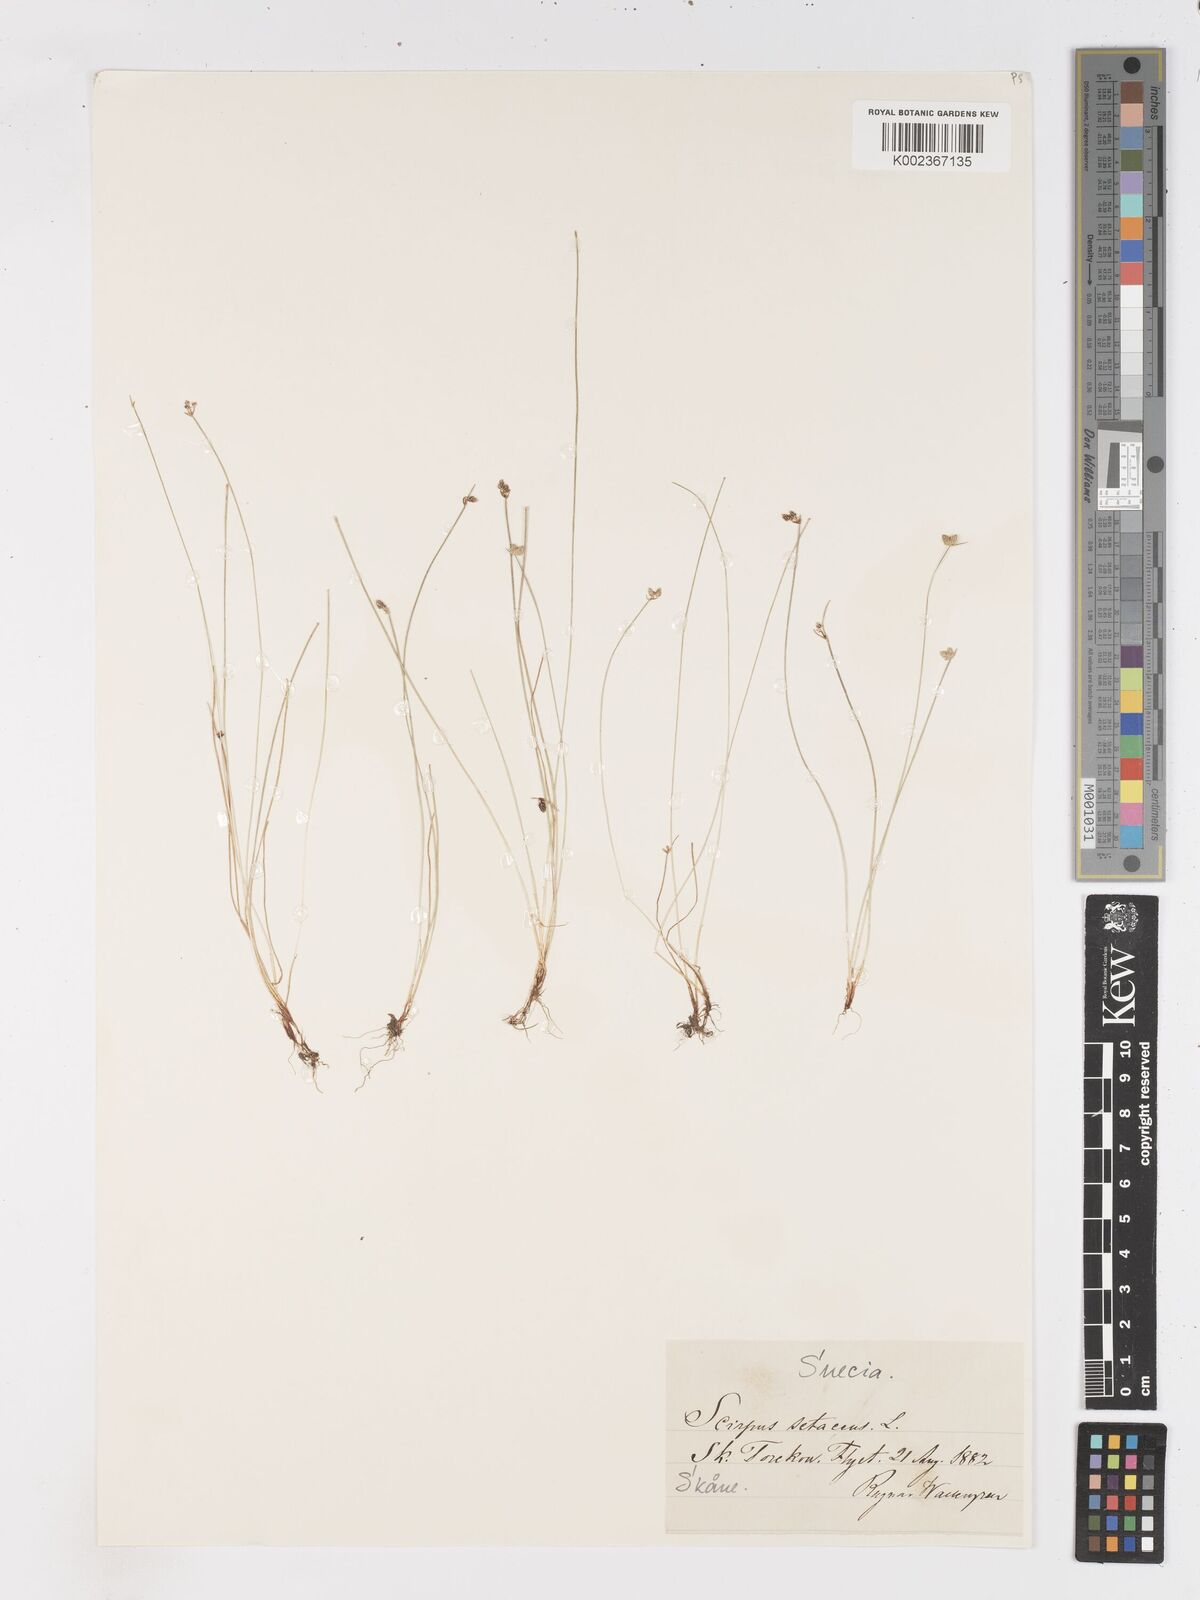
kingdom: Plantae
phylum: Tracheophyta
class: Liliopsida
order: Poales
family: Cyperaceae
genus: Isolepis
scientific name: Isolepis setacea
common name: Bristle club-rush
